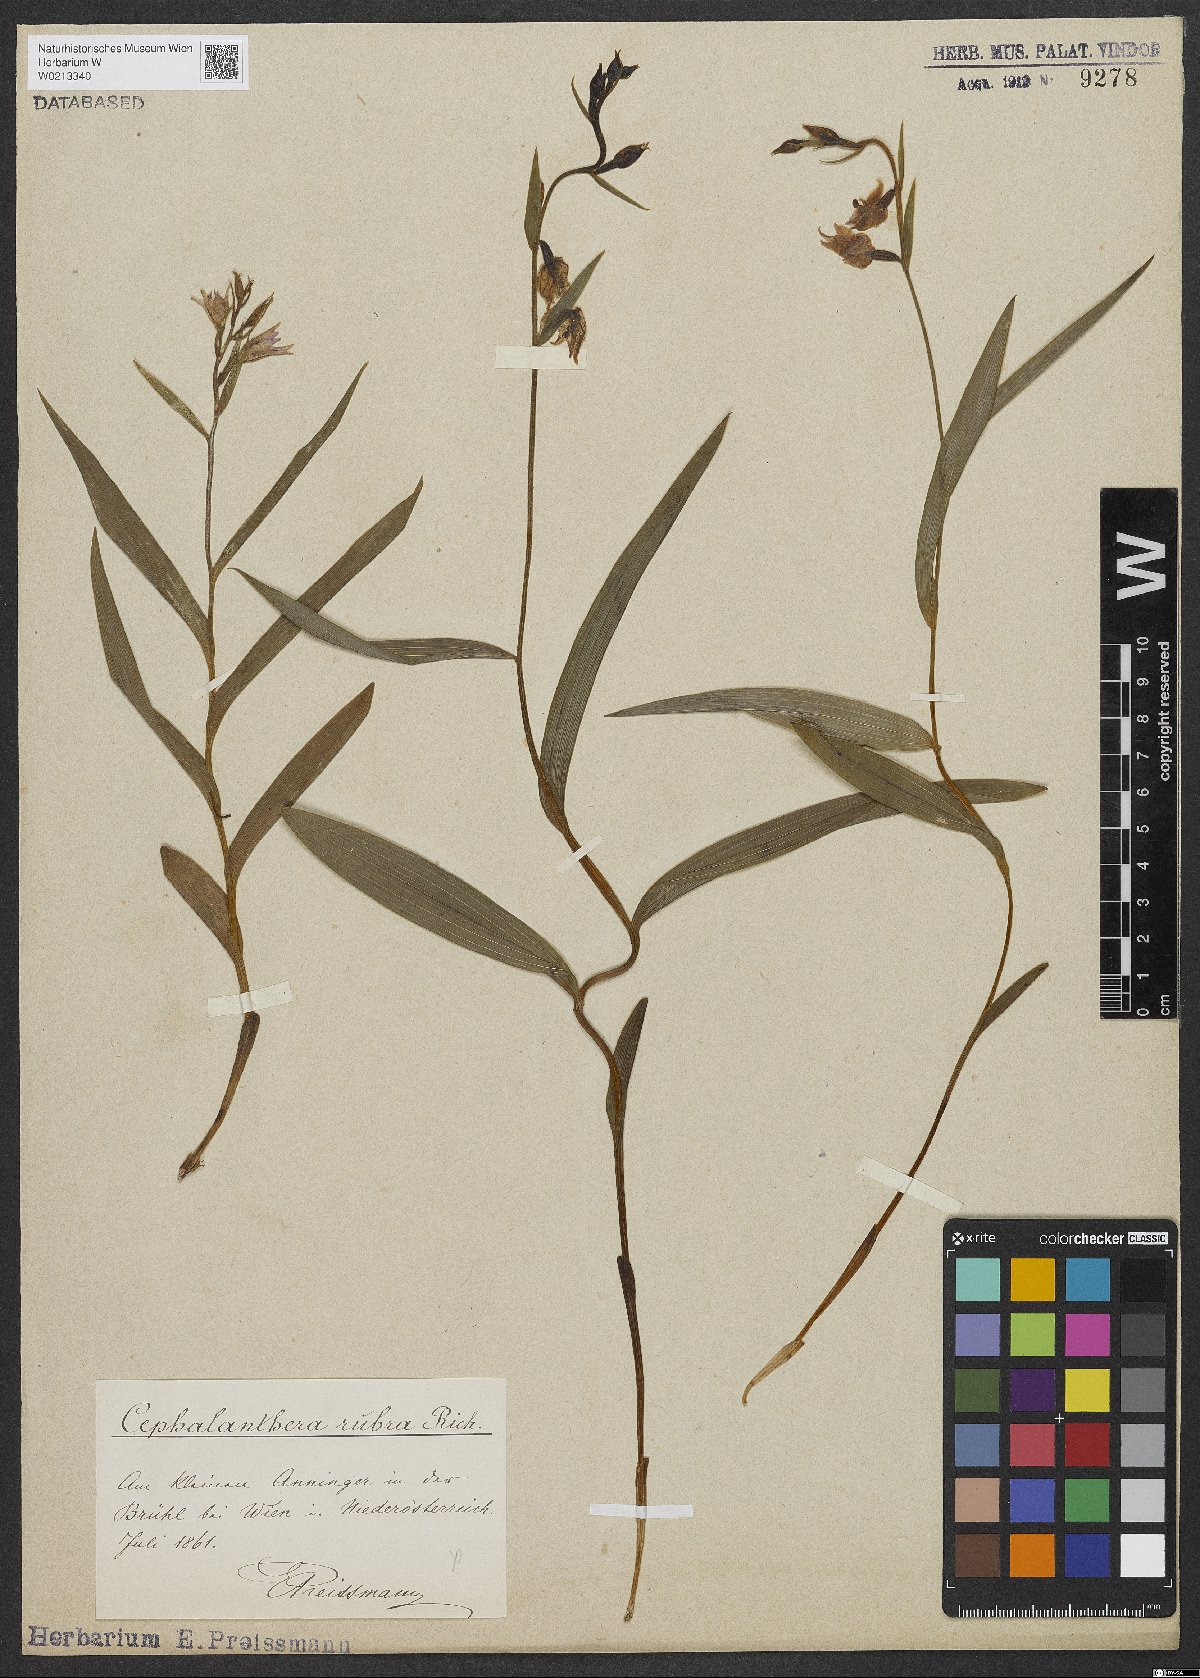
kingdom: Plantae
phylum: Tracheophyta
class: Liliopsida
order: Asparagales
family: Orchidaceae
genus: Cephalanthera
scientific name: Cephalanthera rubra
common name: Red helleborine
